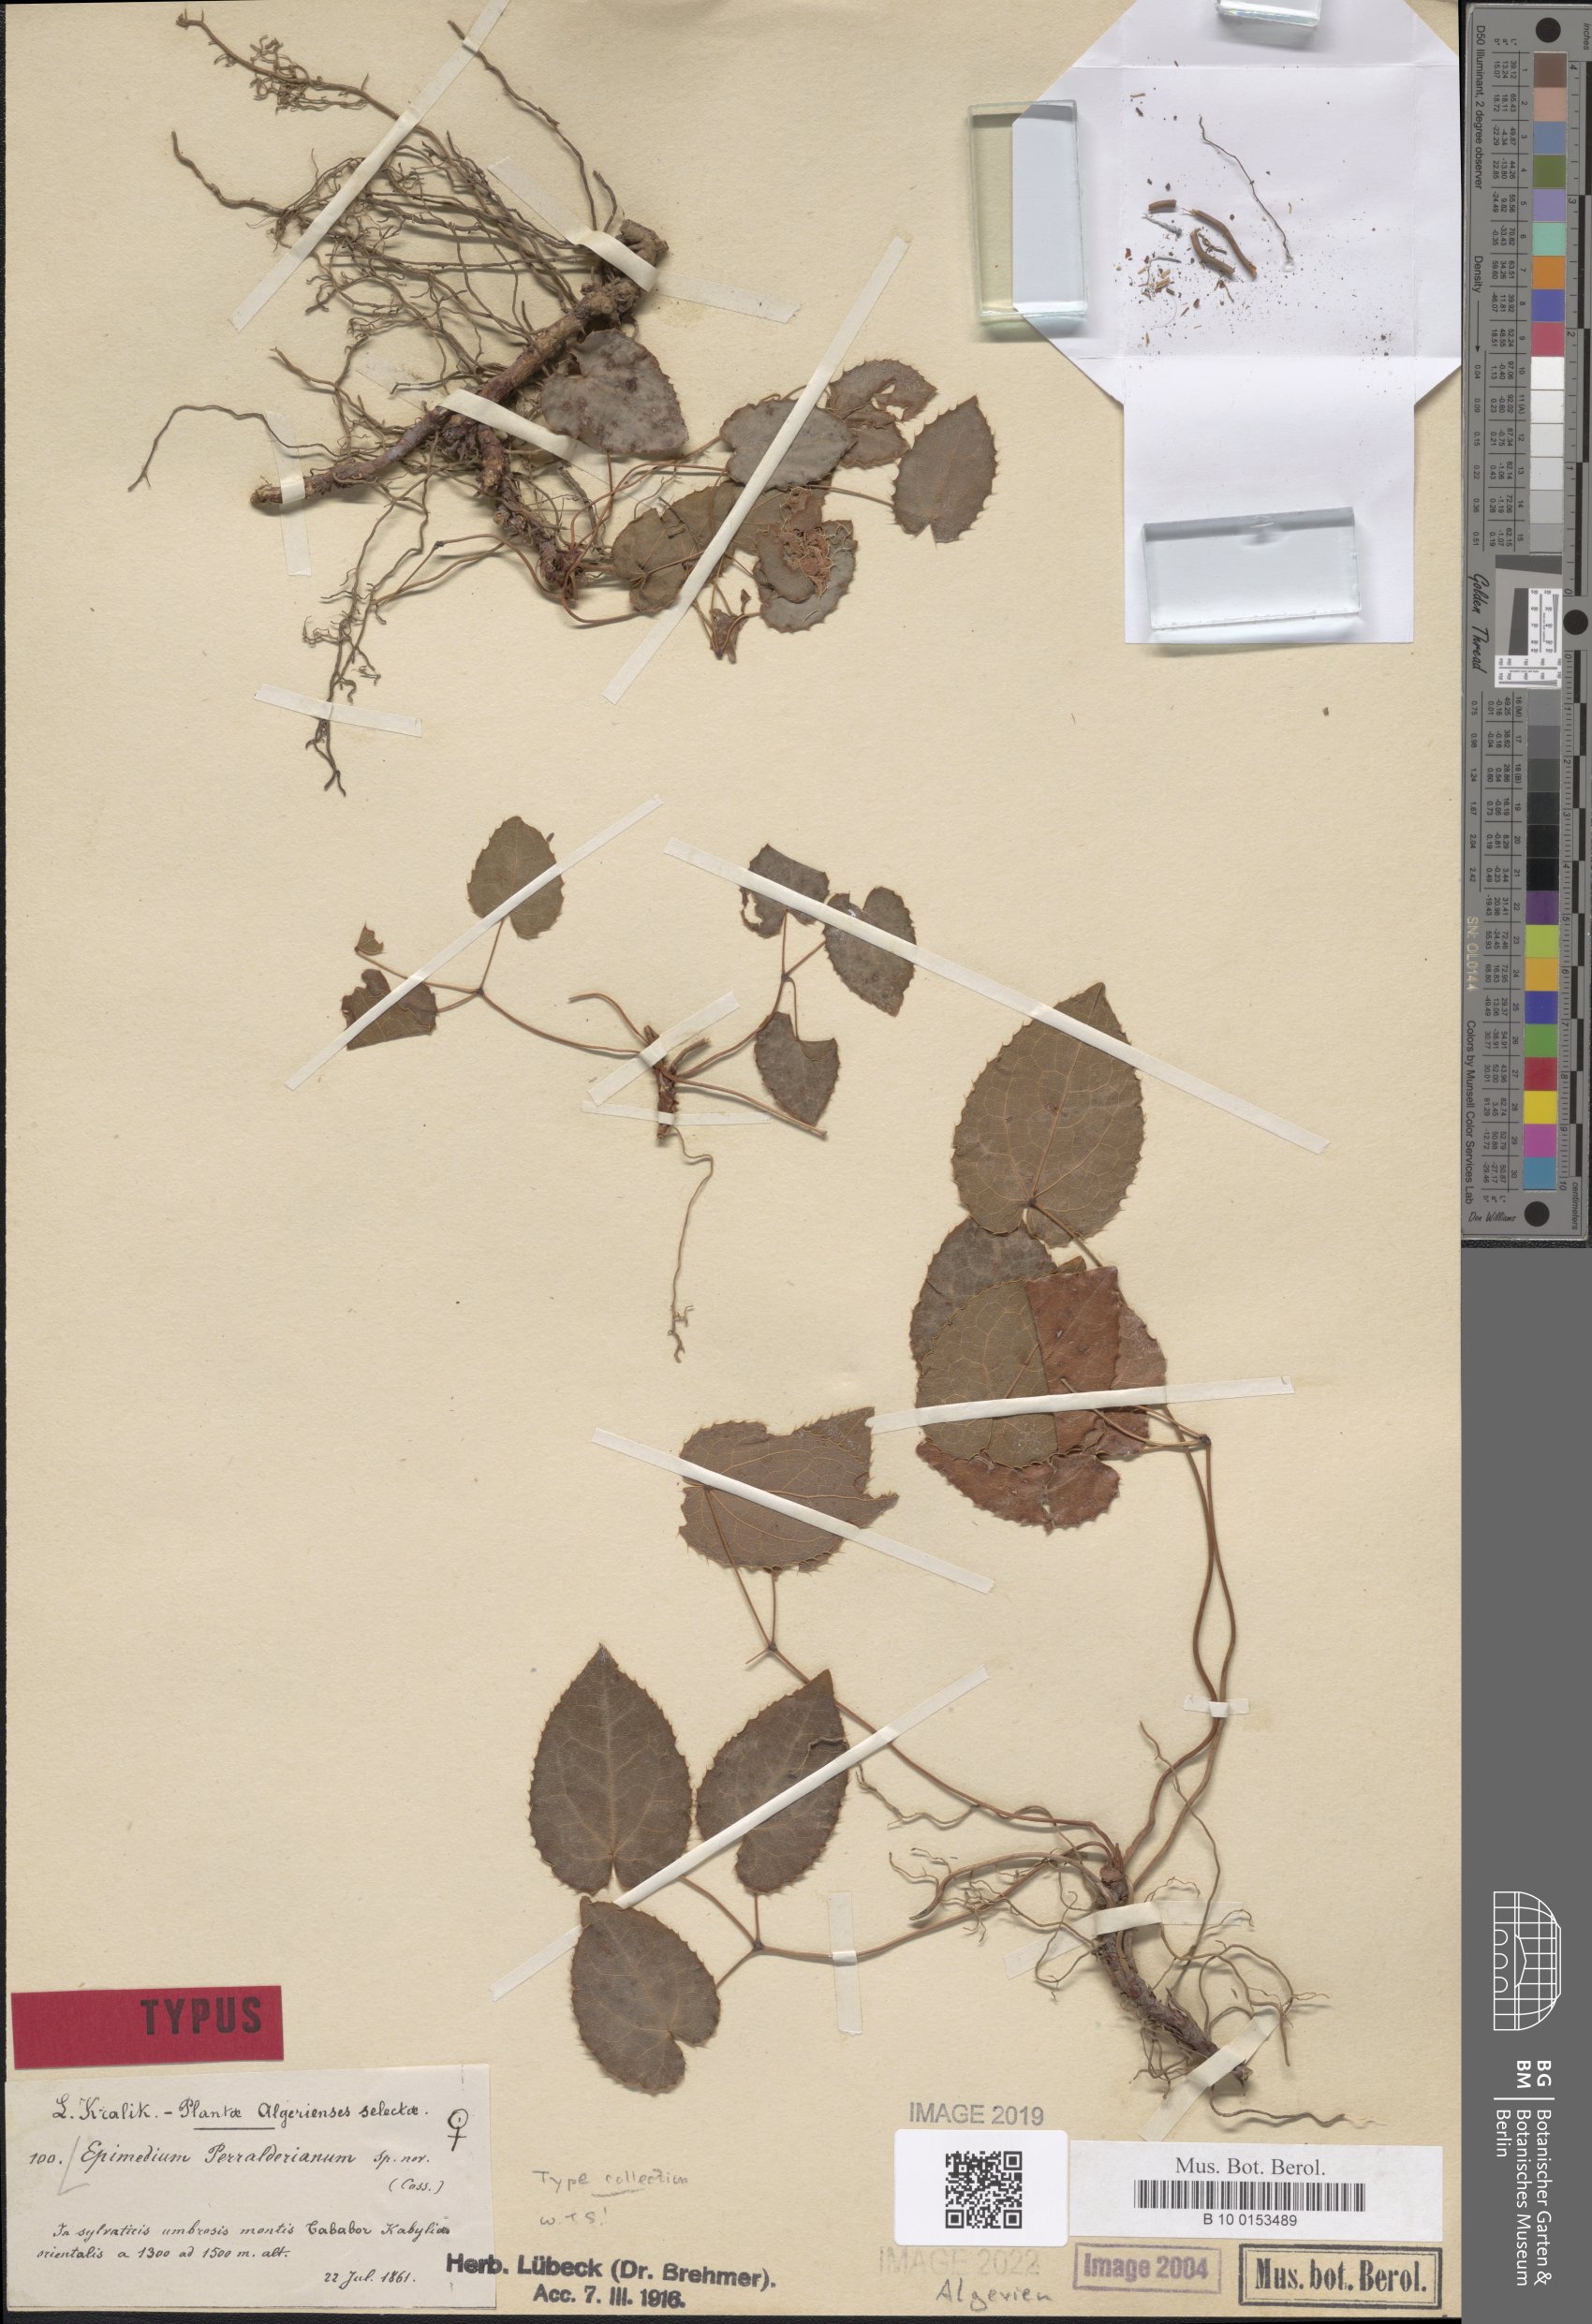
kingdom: Plantae
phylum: Tracheophyta
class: Magnoliopsida
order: Ranunculales
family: Berberidaceae
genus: Epimedium
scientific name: Epimedium perralderianum
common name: Algerian barrenwort
